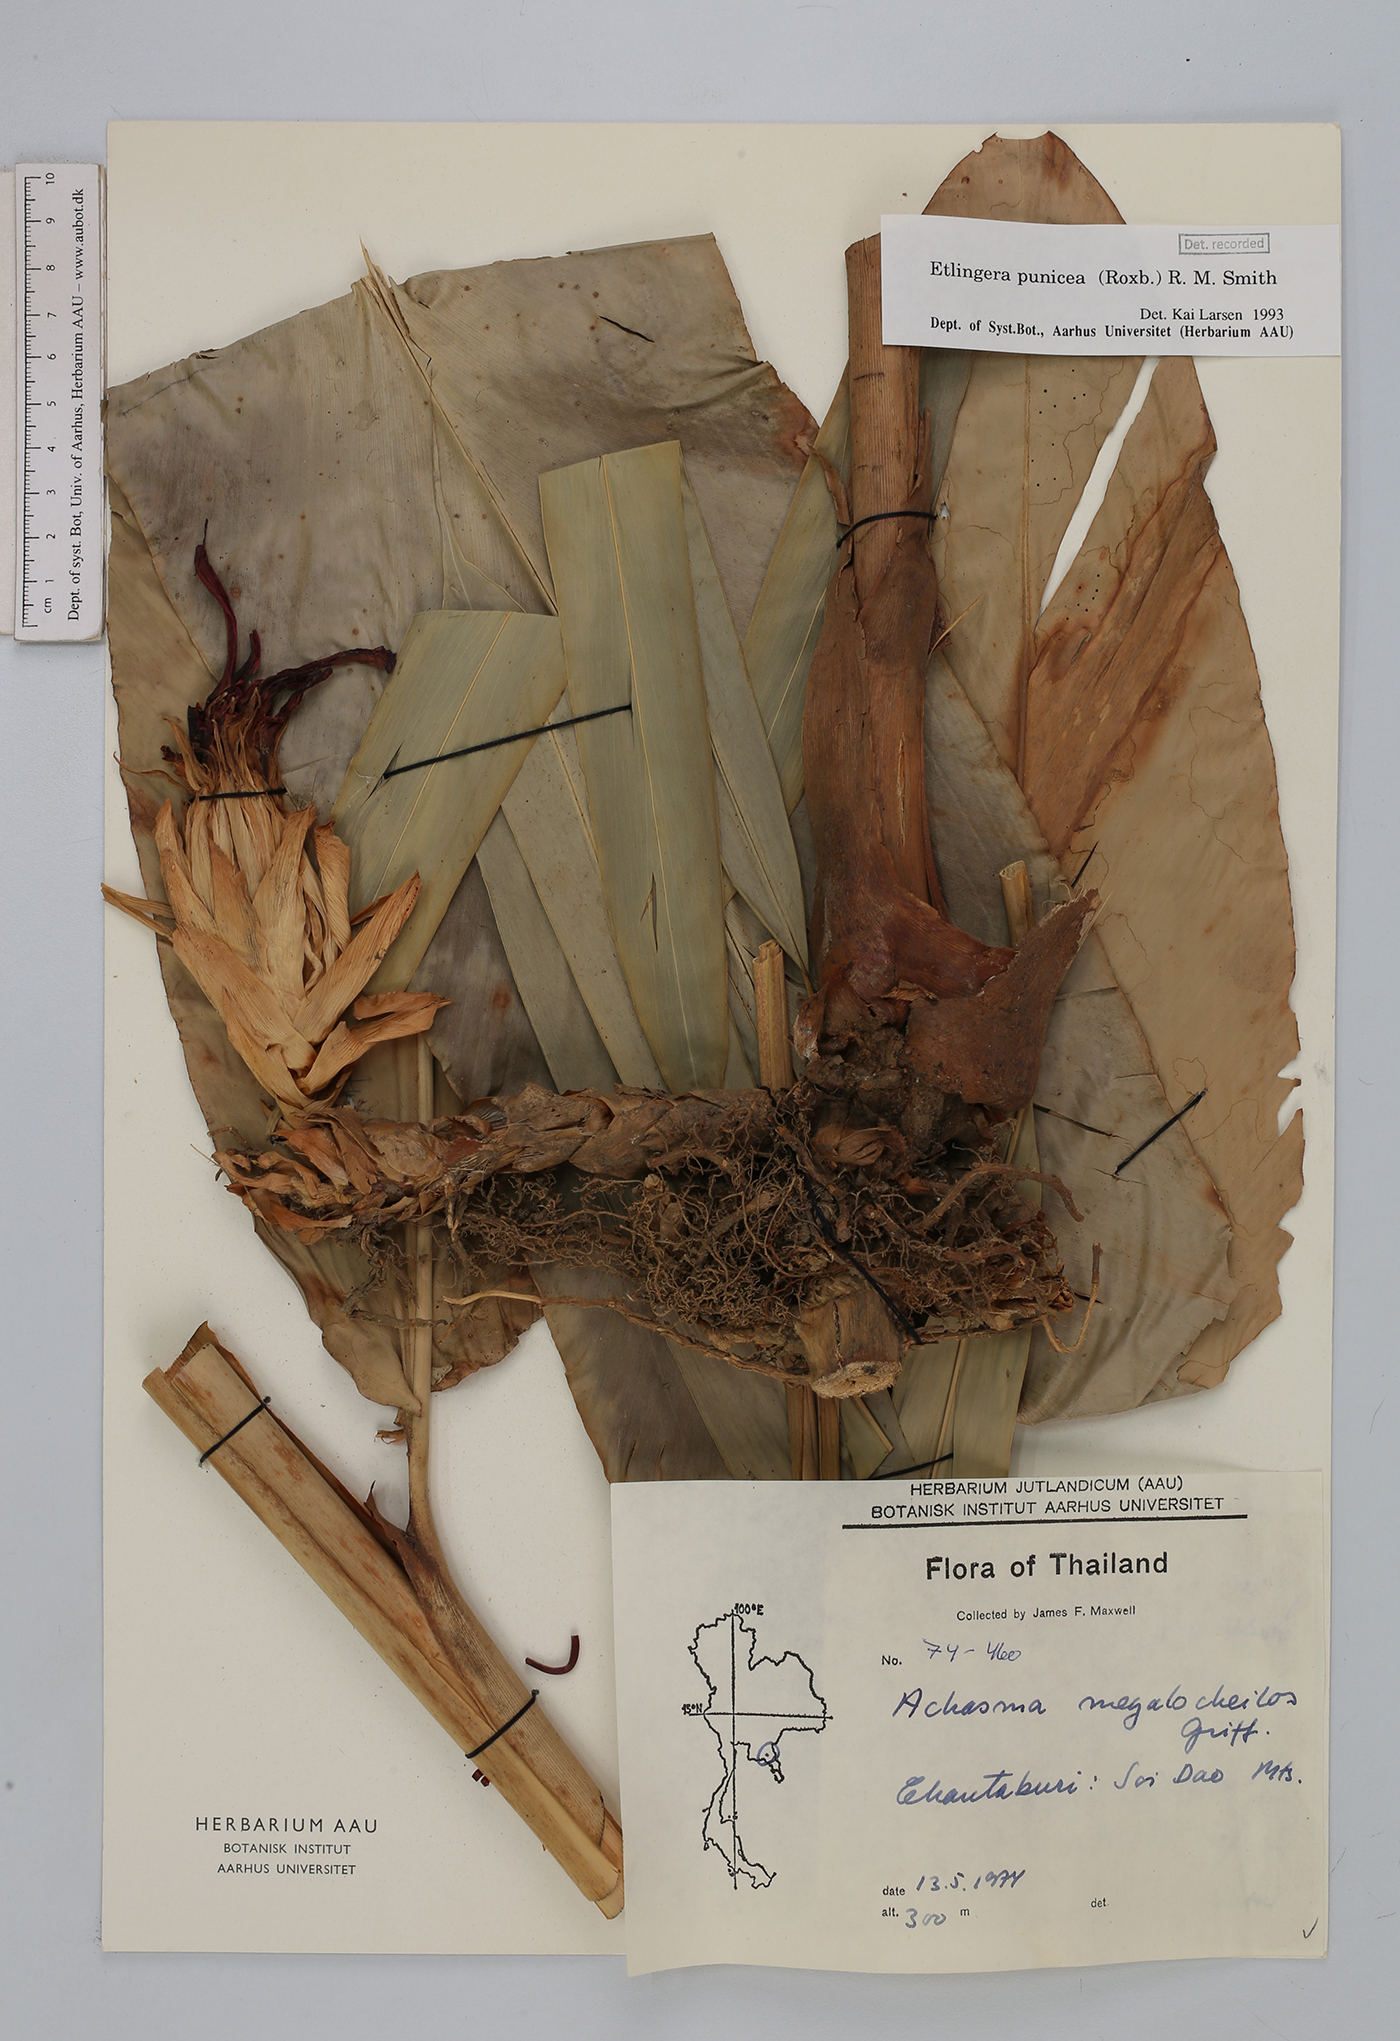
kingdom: Plantae
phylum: Tracheophyta
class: Liliopsida
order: Zingiberales
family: Zingiberaceae
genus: Etlingera
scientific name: Etlingera punicea
